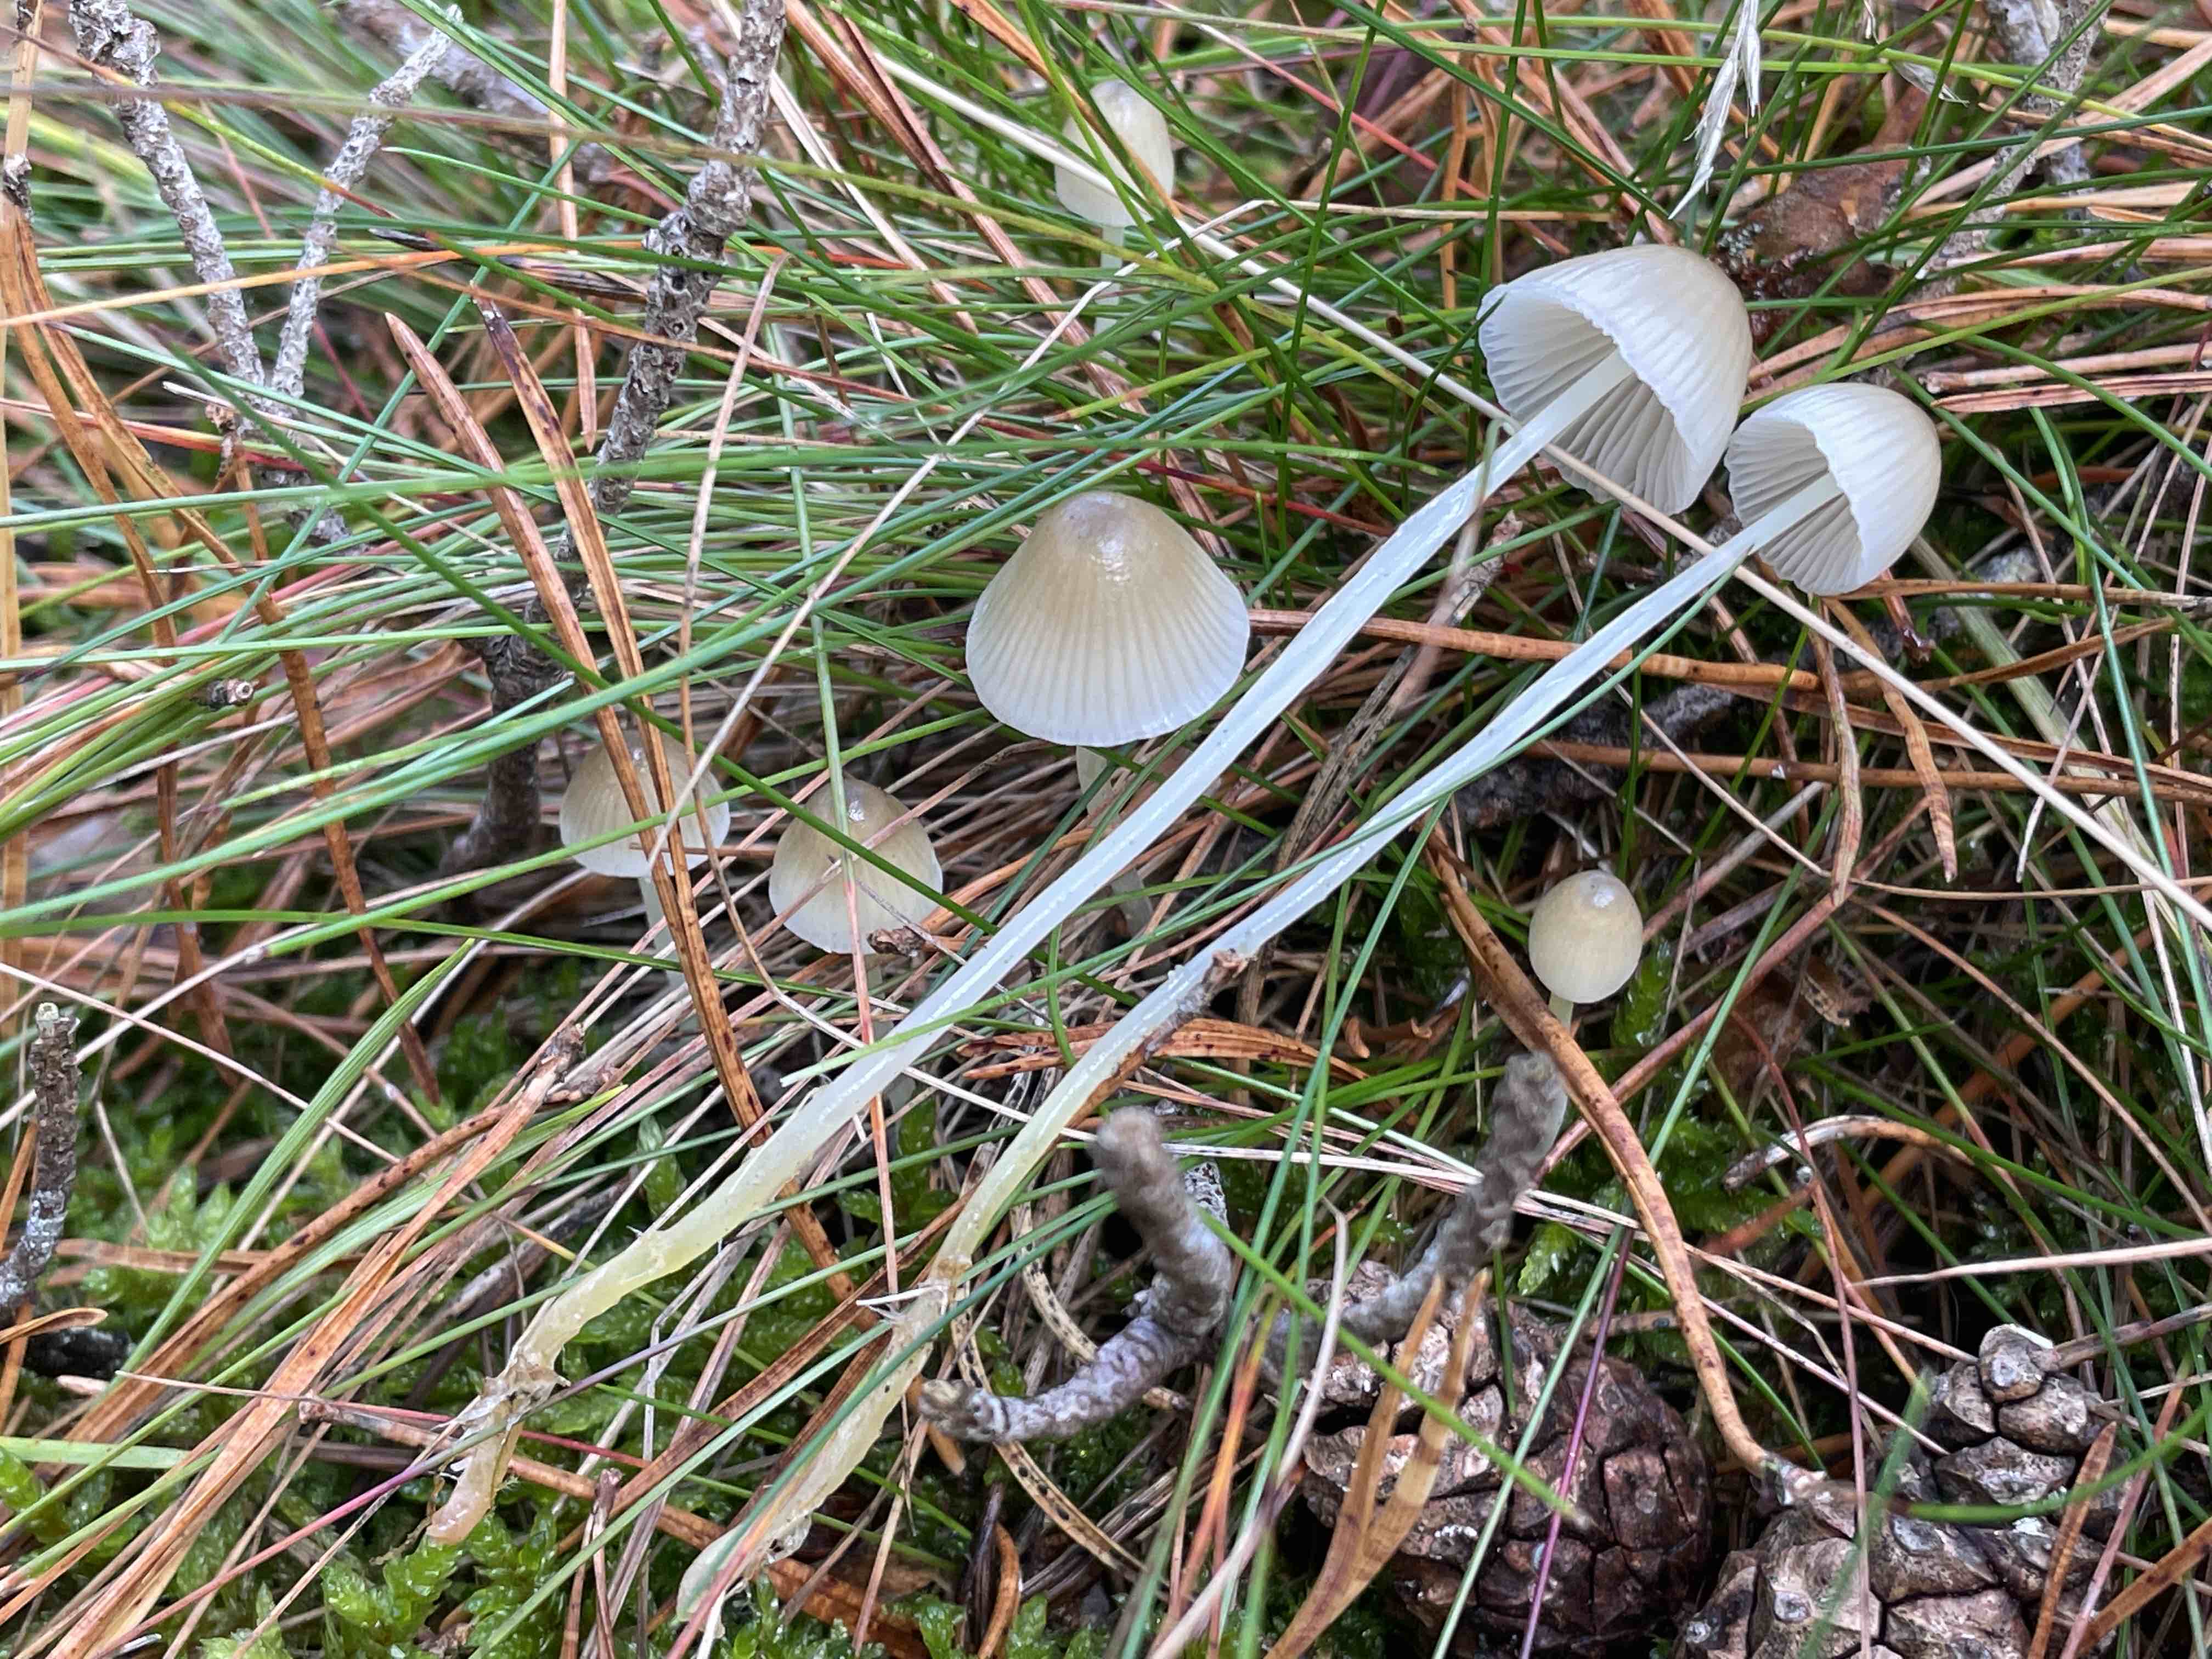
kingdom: Fungi
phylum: Basidiomycota
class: Agaricomycetes
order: Agaricales
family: Mycenaceae
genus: Mycena
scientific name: Mycena epipterygia
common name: gulstokket huesvamp
